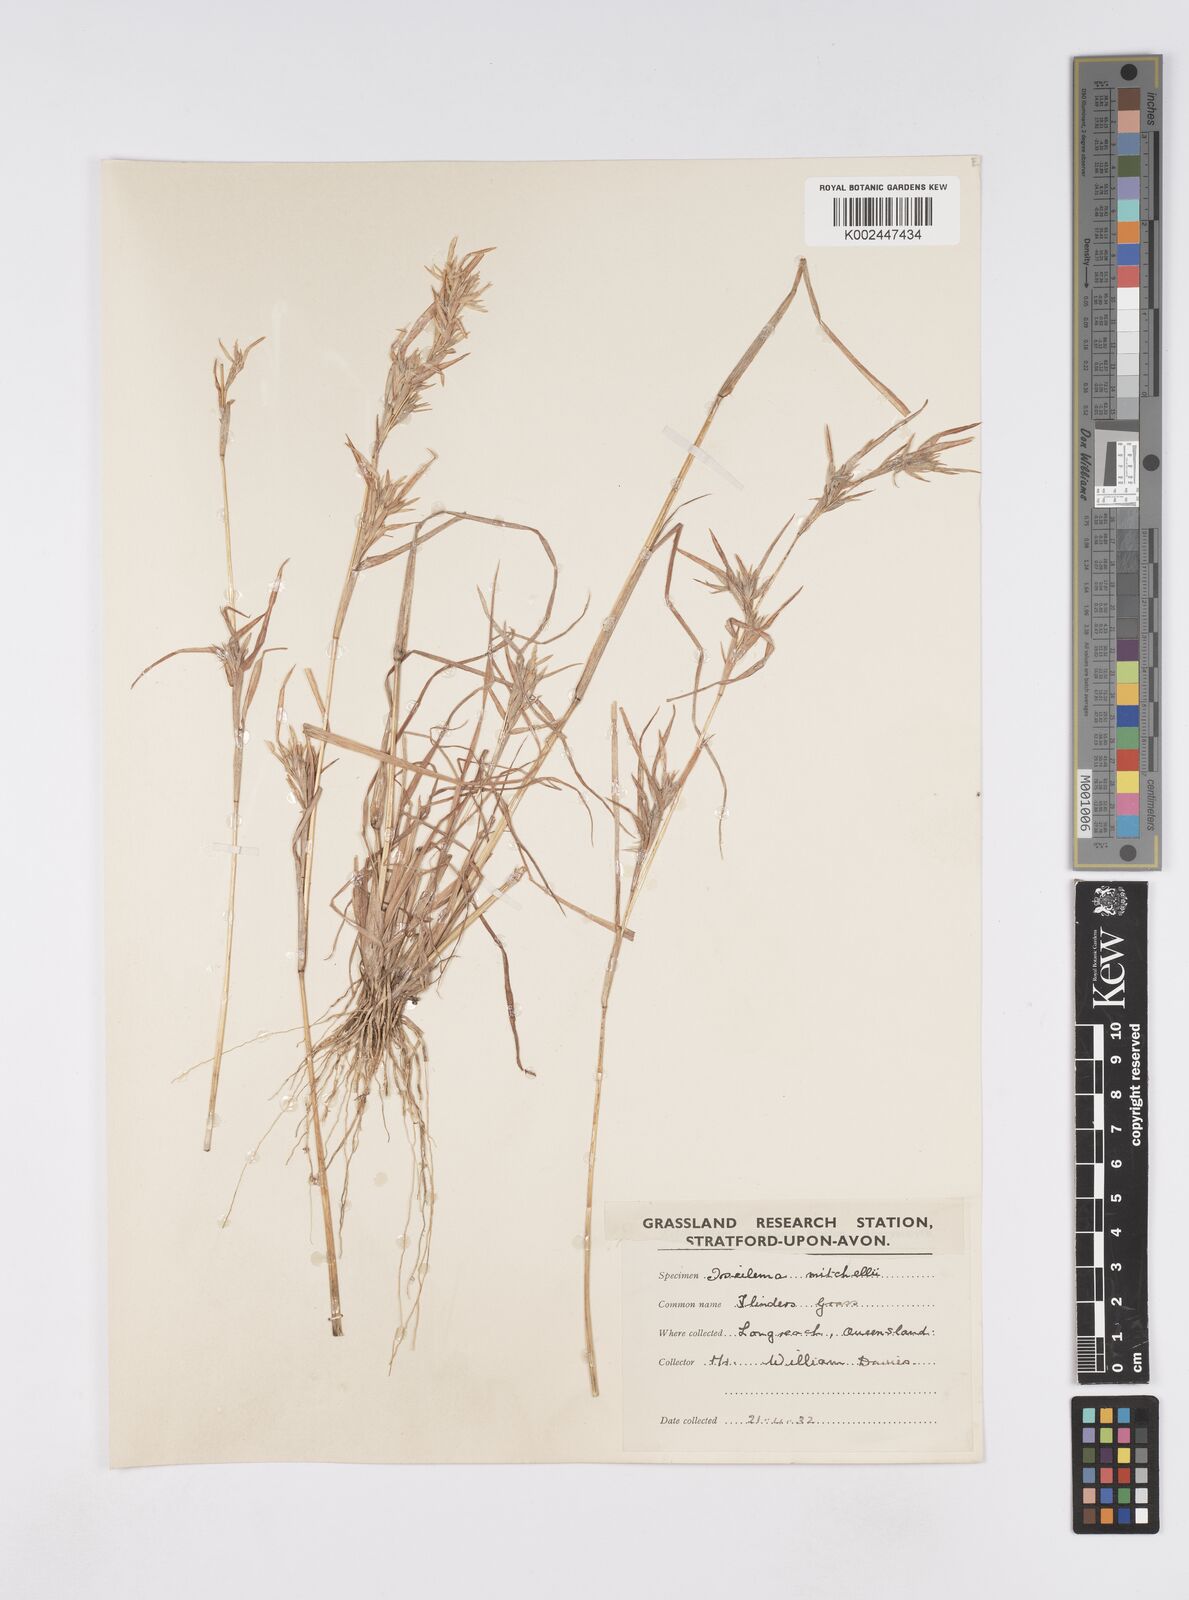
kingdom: Plantae
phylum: Tracheophyta
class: Liliopsida
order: Poales
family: Poaceae
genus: Iseilema
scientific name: Iseilema
